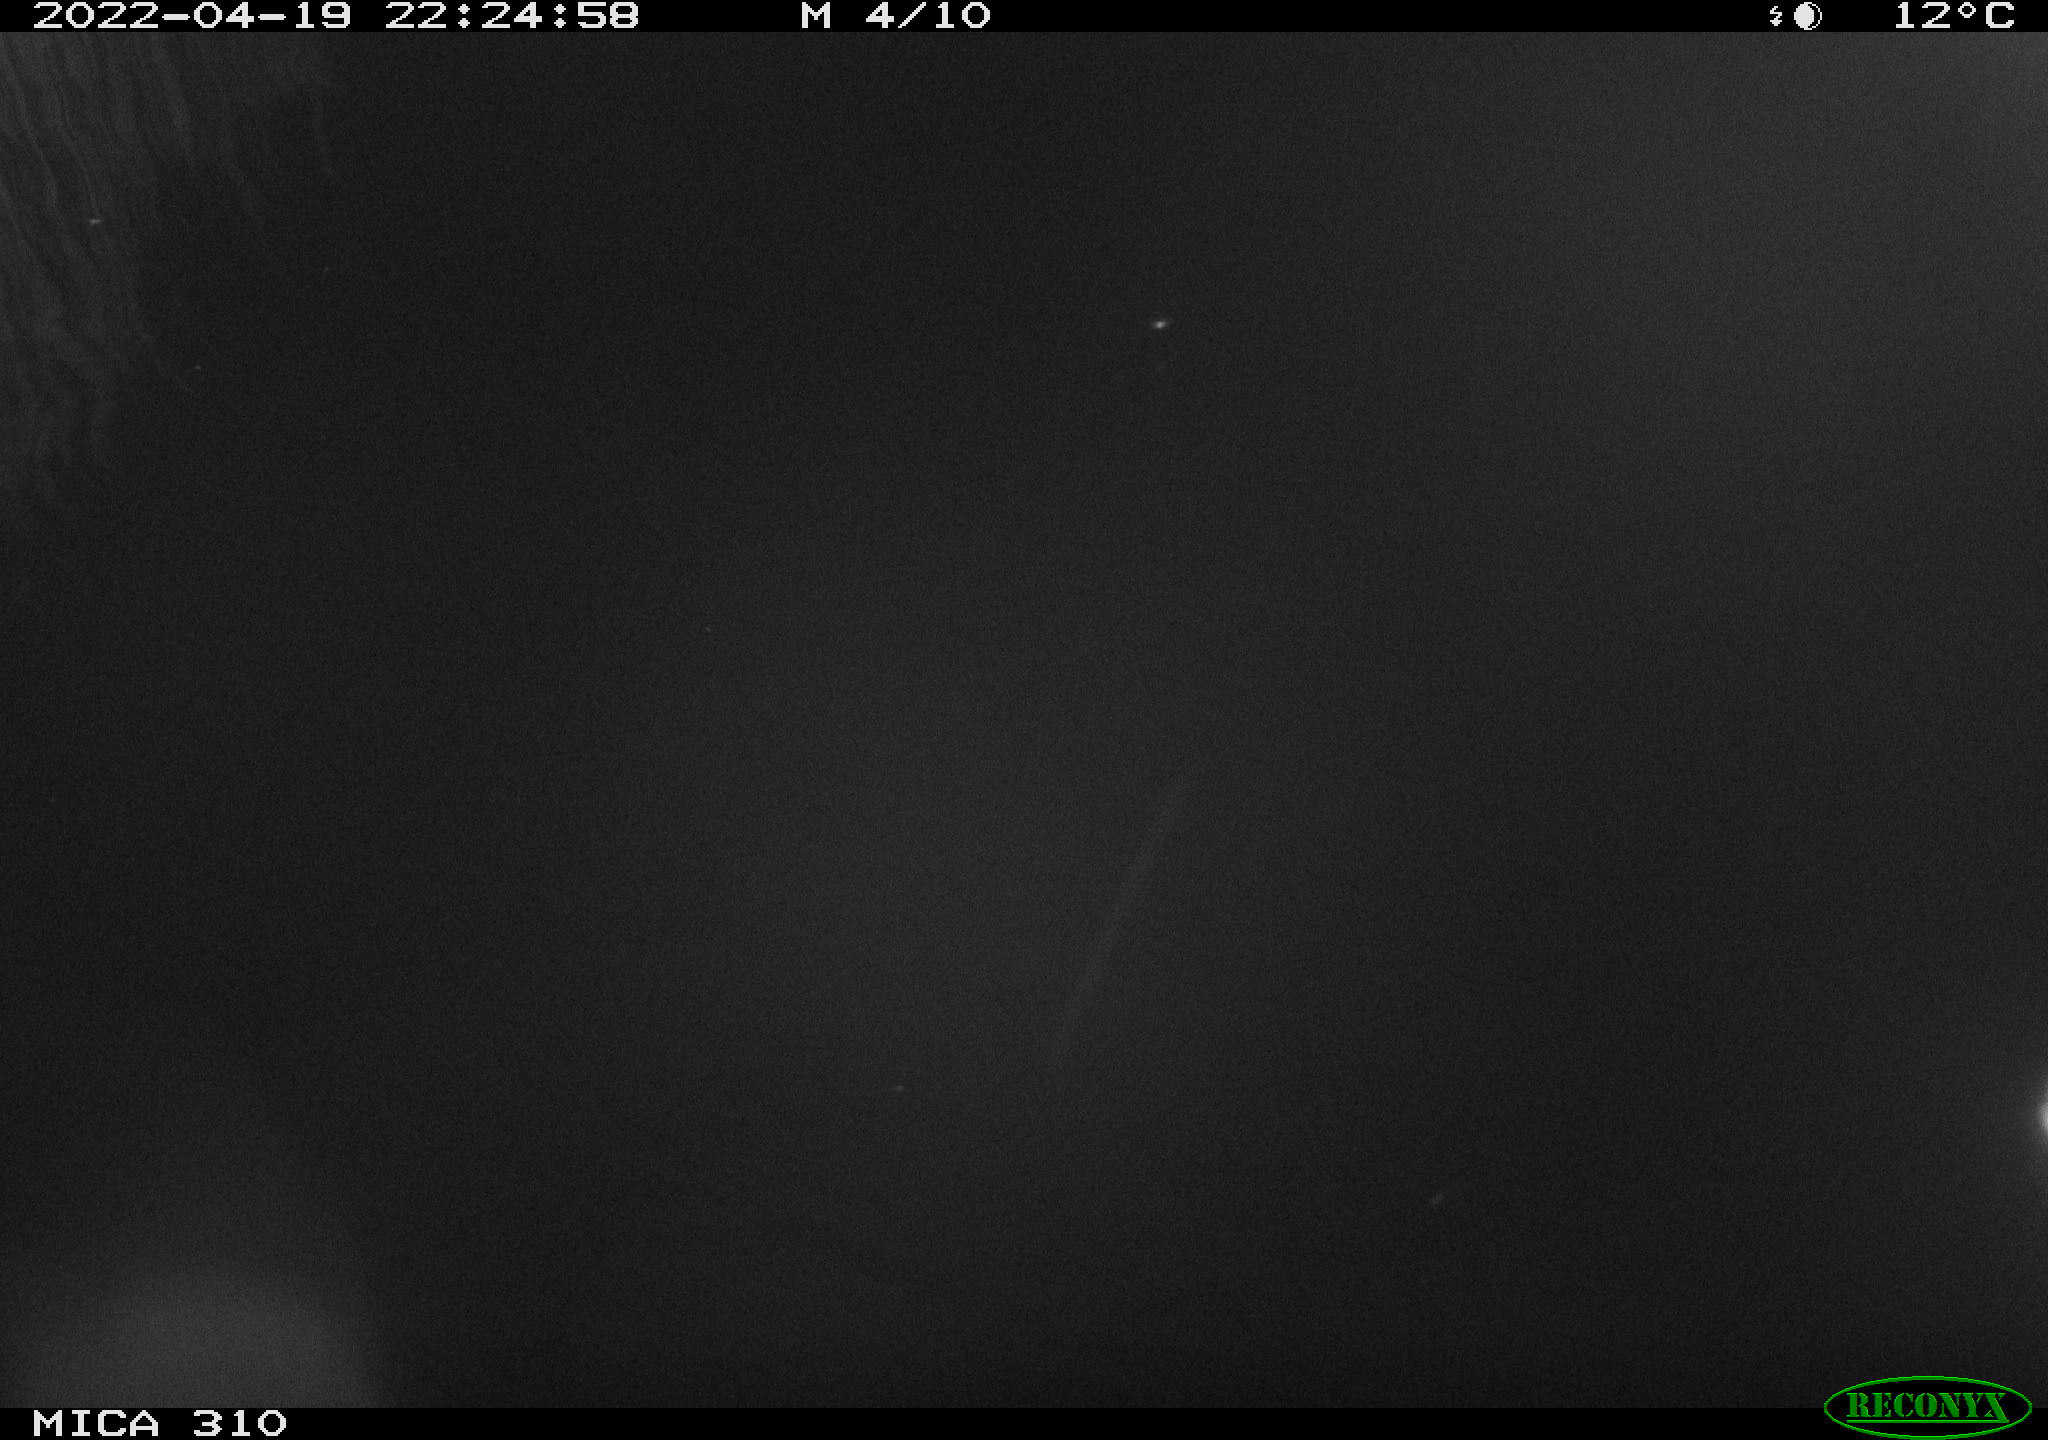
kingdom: Animalia
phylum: Chordata
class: Aves
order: Anseriformes
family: Anatidae
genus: Anas
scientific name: Anas platyrhynchos
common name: Mallard
